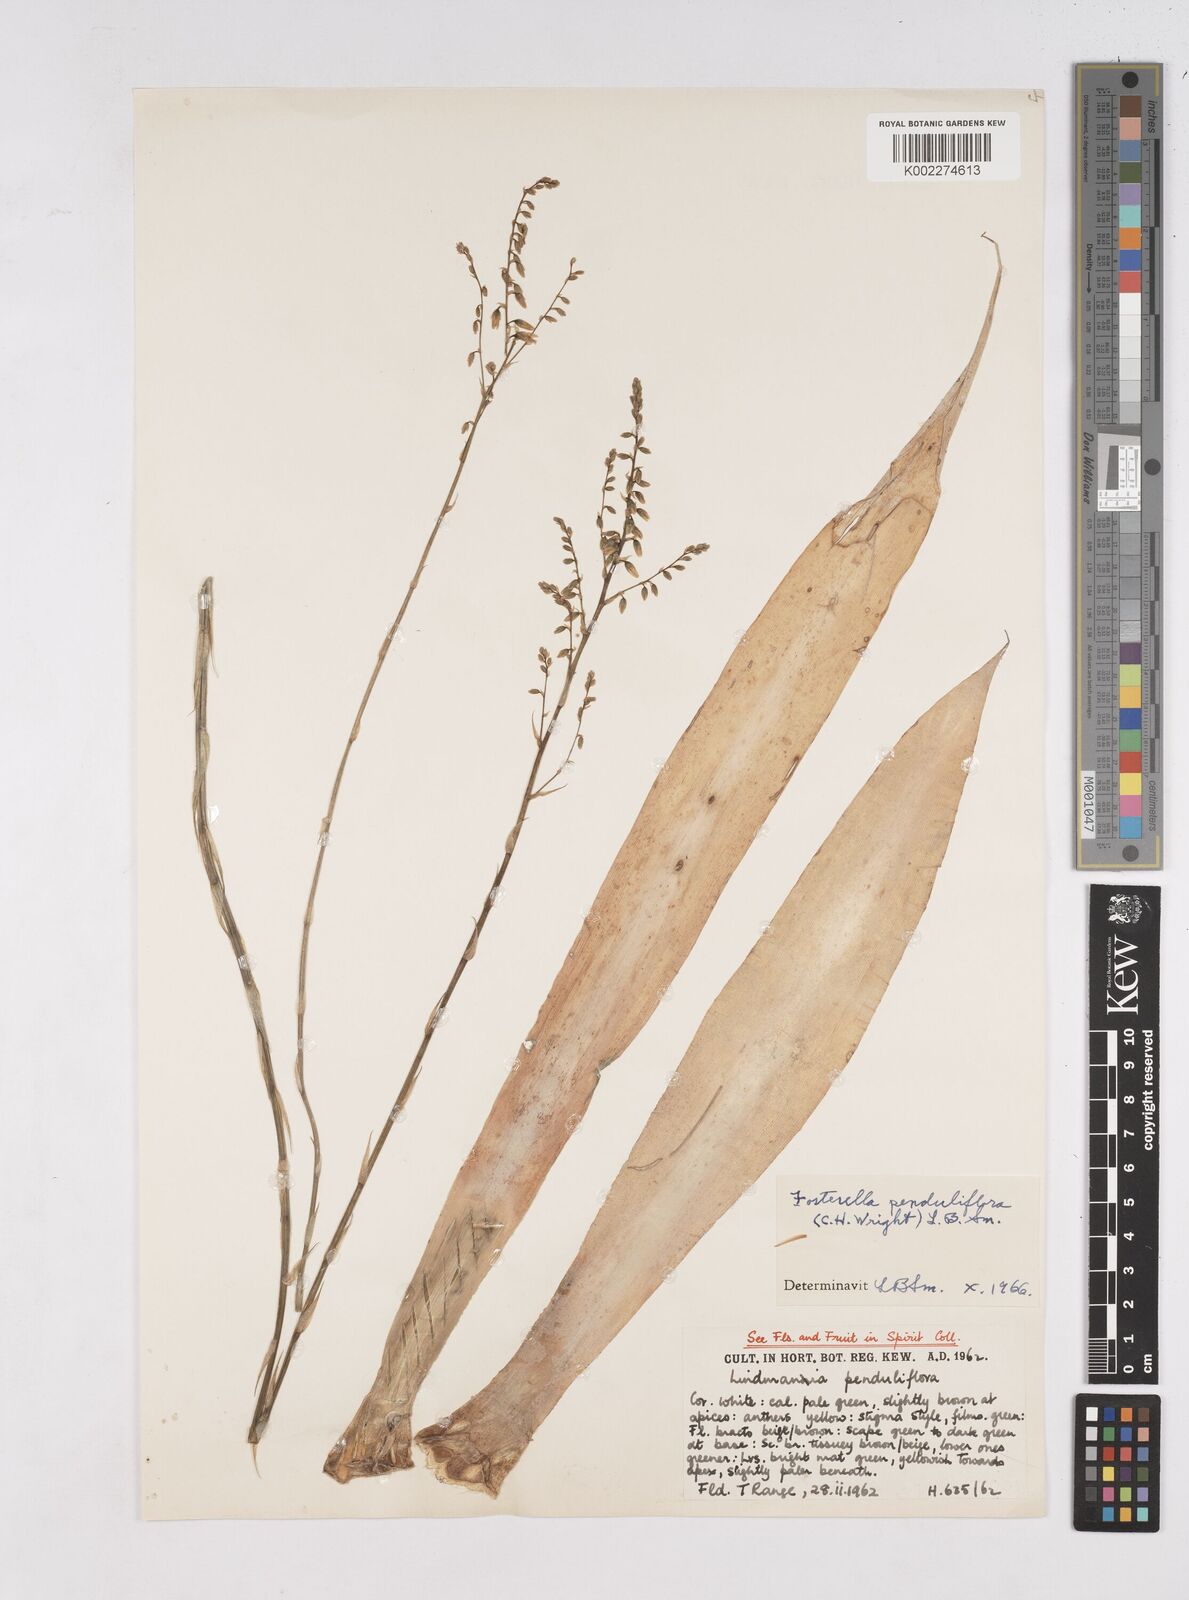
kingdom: Plantae
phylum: Tracheophyta
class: Liliopsida
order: Poales
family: Bromeliaceae
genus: Fosterella
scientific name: Fosterella penduliflora
